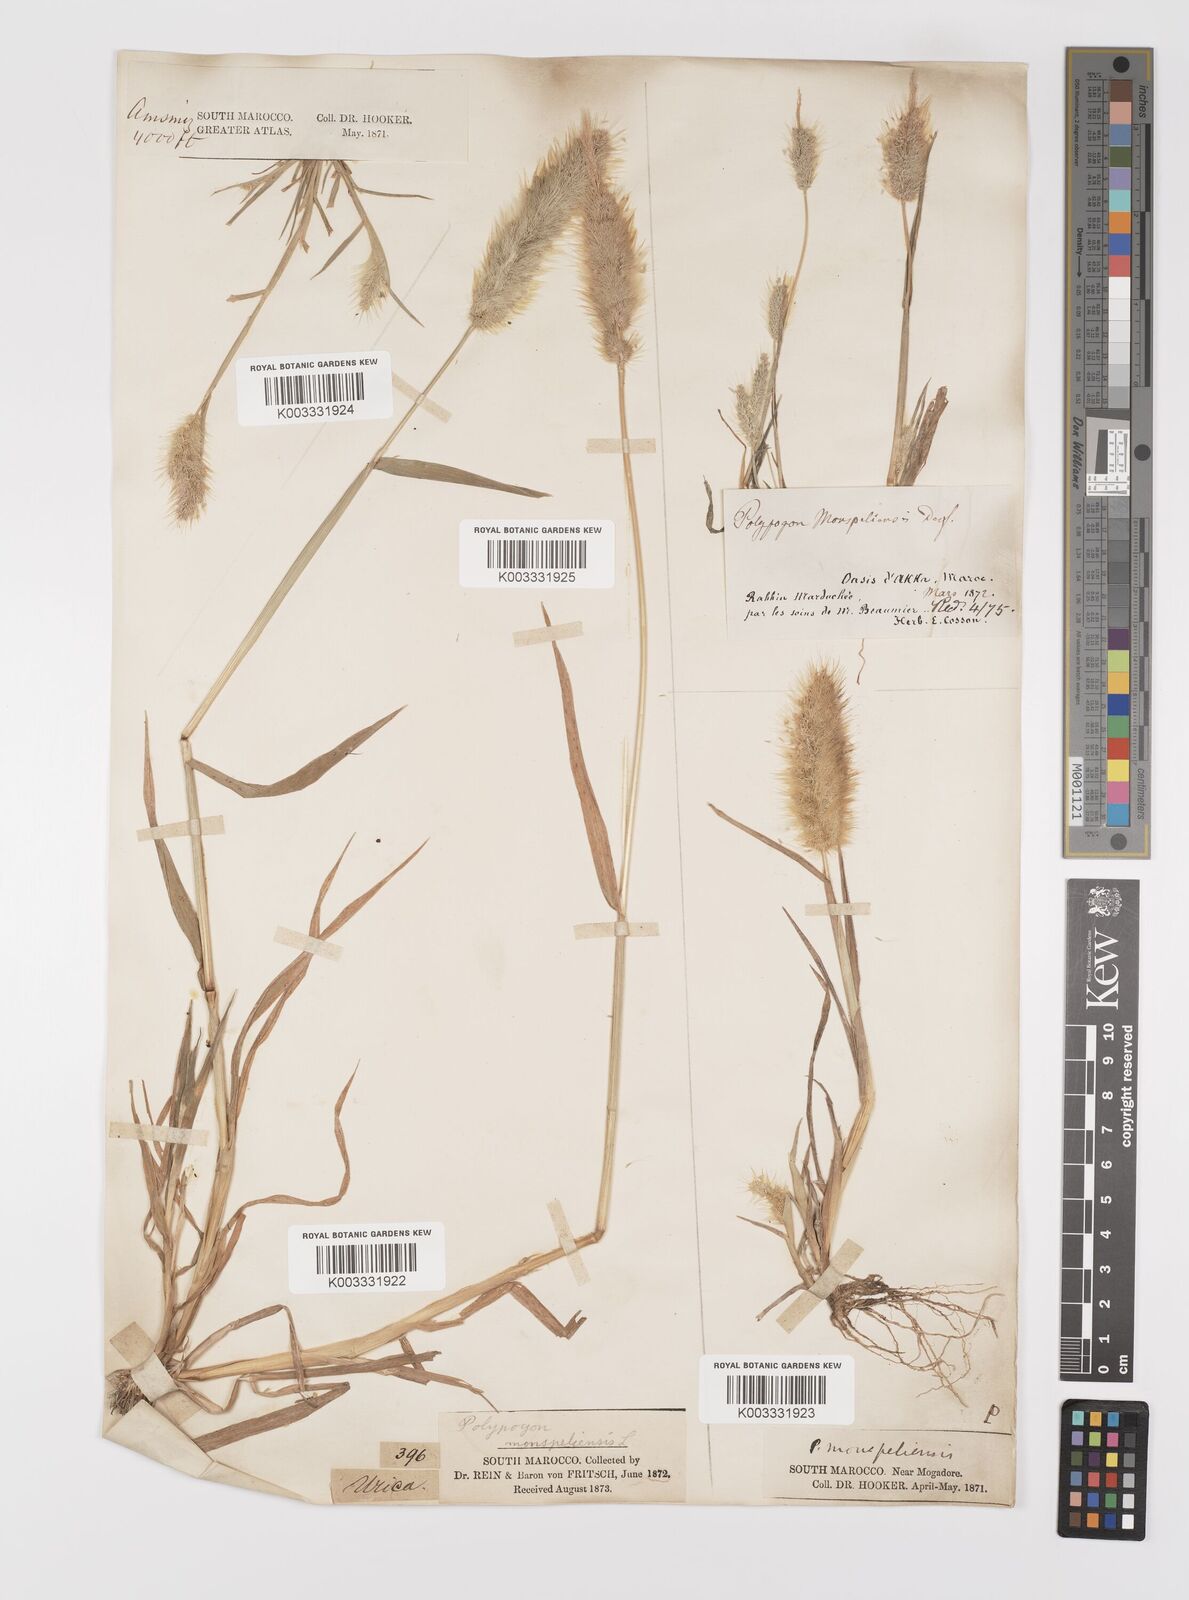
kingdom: Plantae
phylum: Tracheophyta
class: Liliopsida
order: Poales
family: Poaceae
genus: Polypogon
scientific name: Polypogon monspeliensis
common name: Annual rabbitsfoot grass
